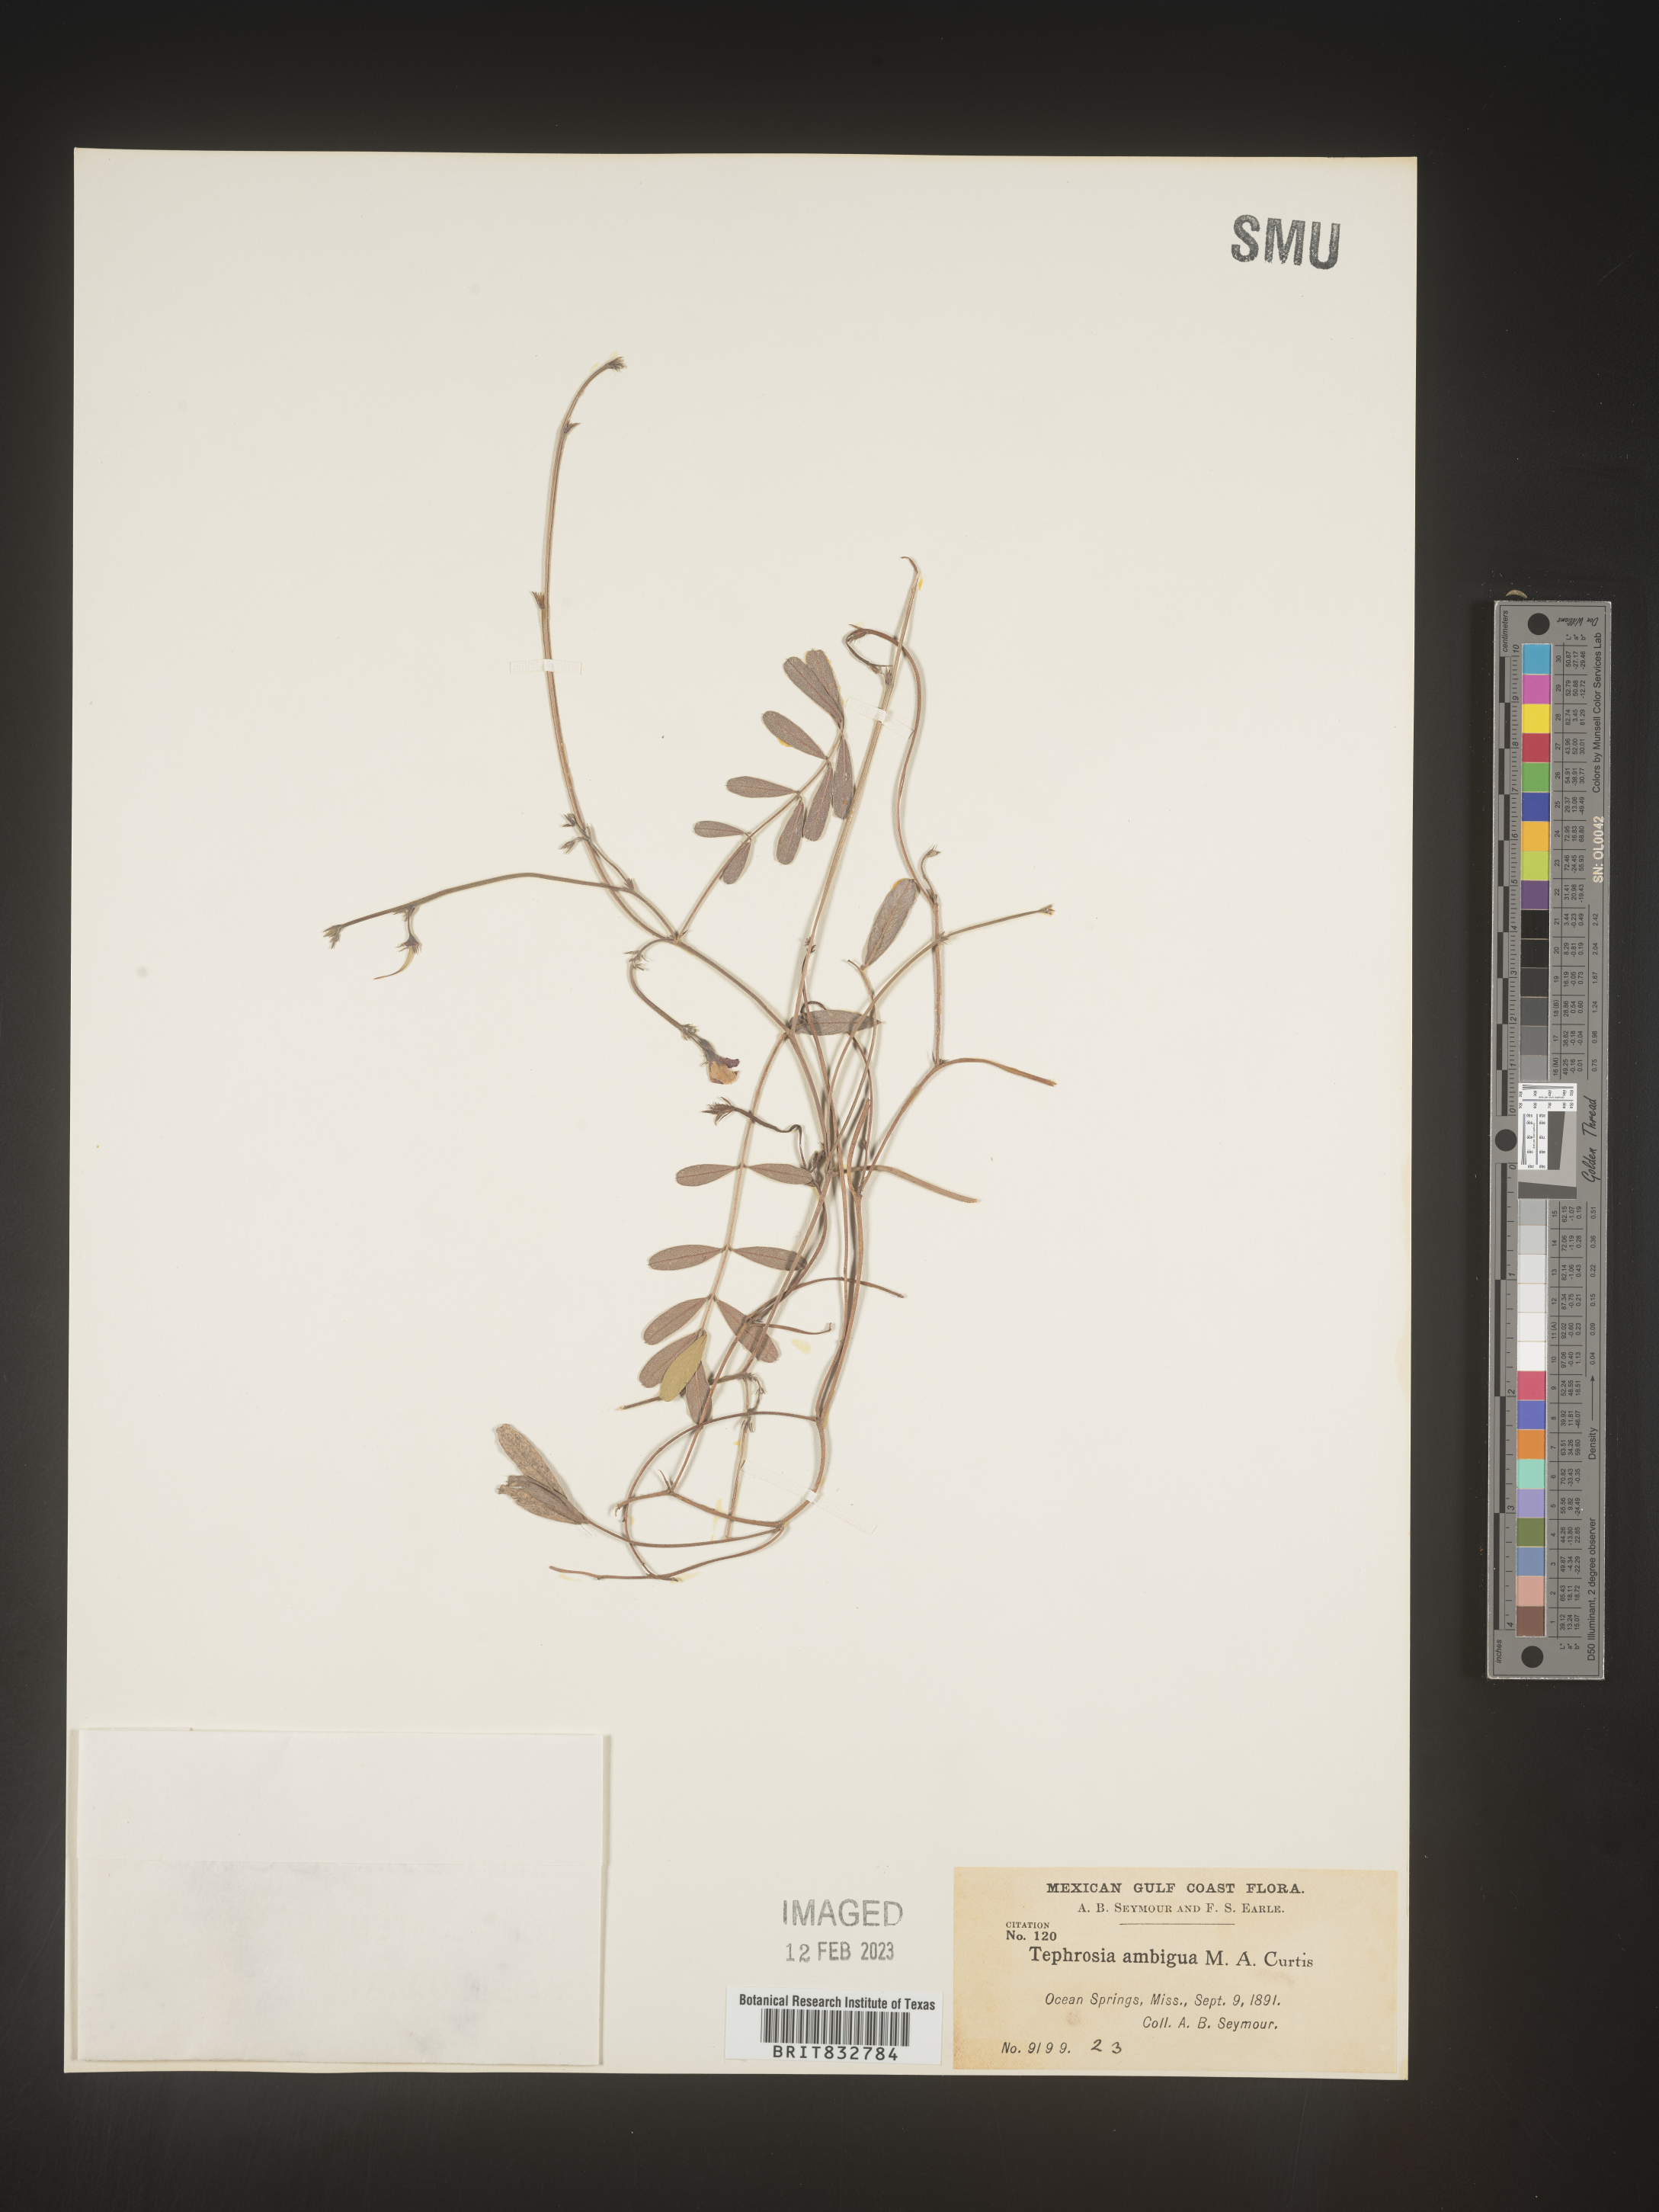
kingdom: Plantae
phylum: Tracheophyta
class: Magnoliopsida
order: Fabales
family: Fabaceae
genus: Tephrosia
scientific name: Tephrosia florida
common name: Florida hoary-pea
